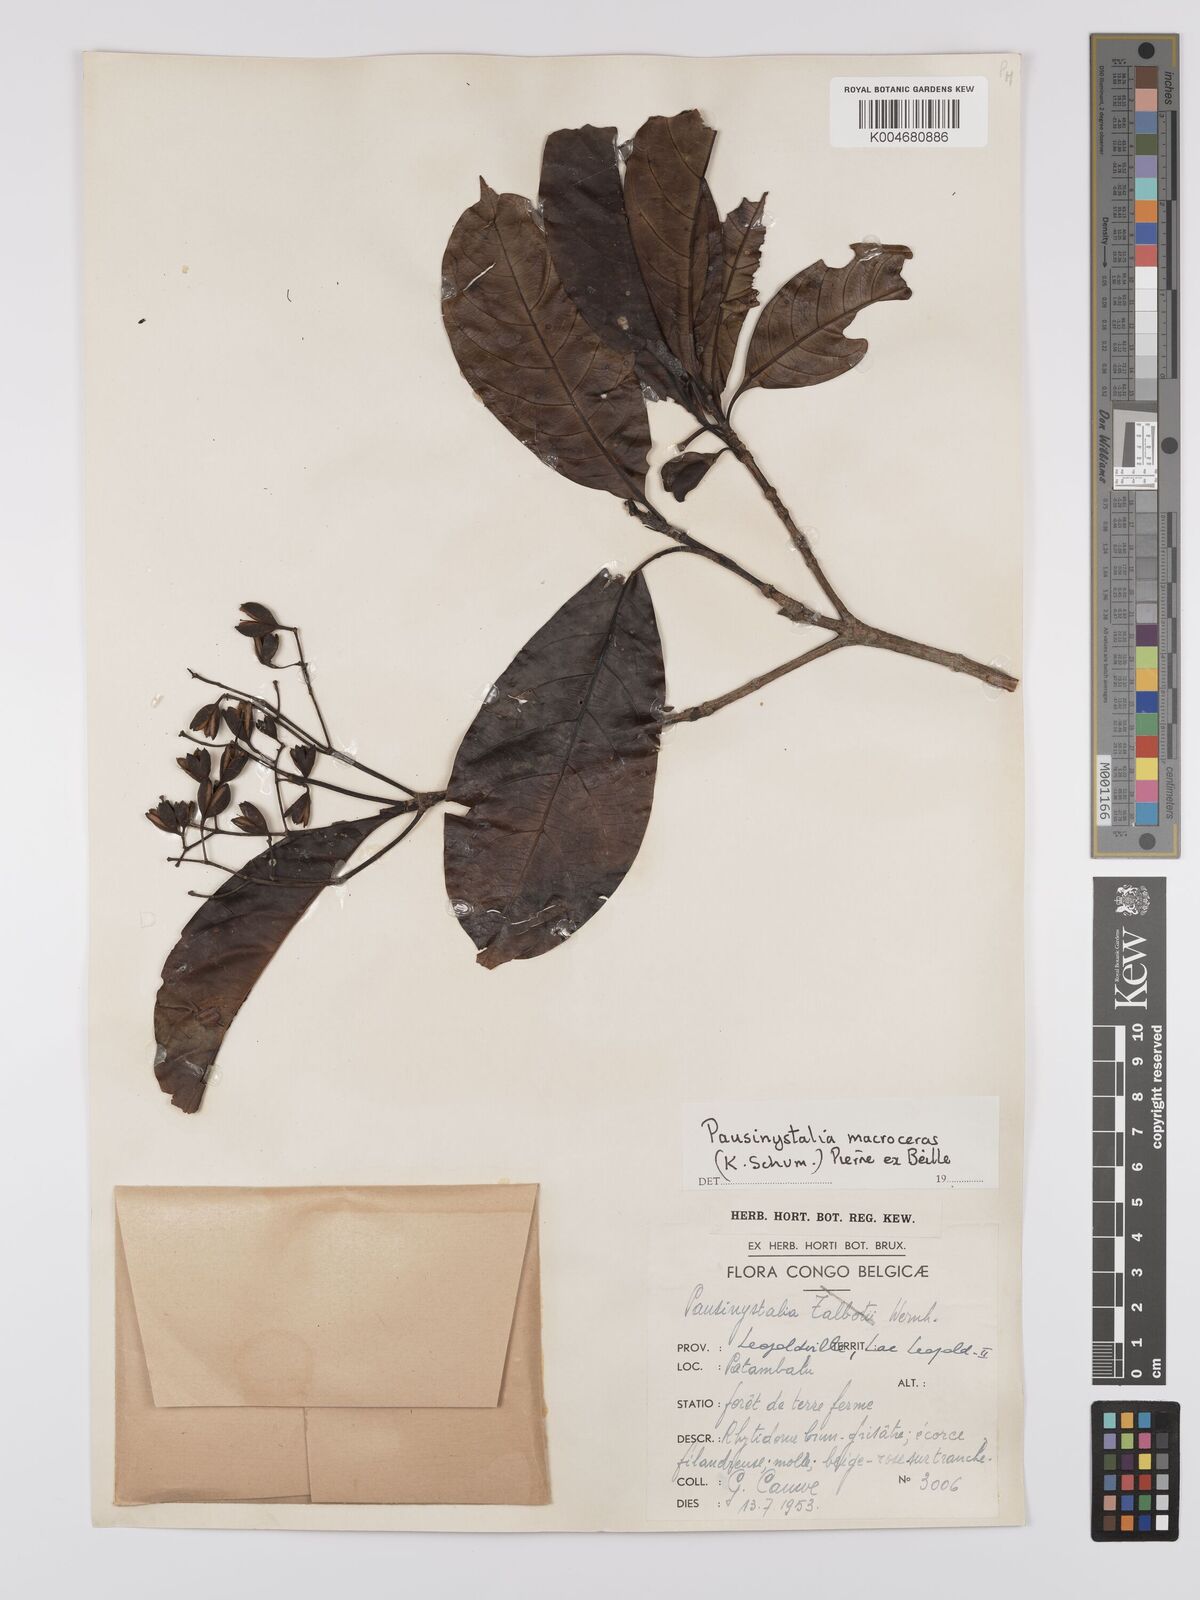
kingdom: Plantae
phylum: Tracheophyta
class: Magnoliopsida
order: Gentianales
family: Rubiaceae
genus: Corynanthe
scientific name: Corynanthe macroceras
